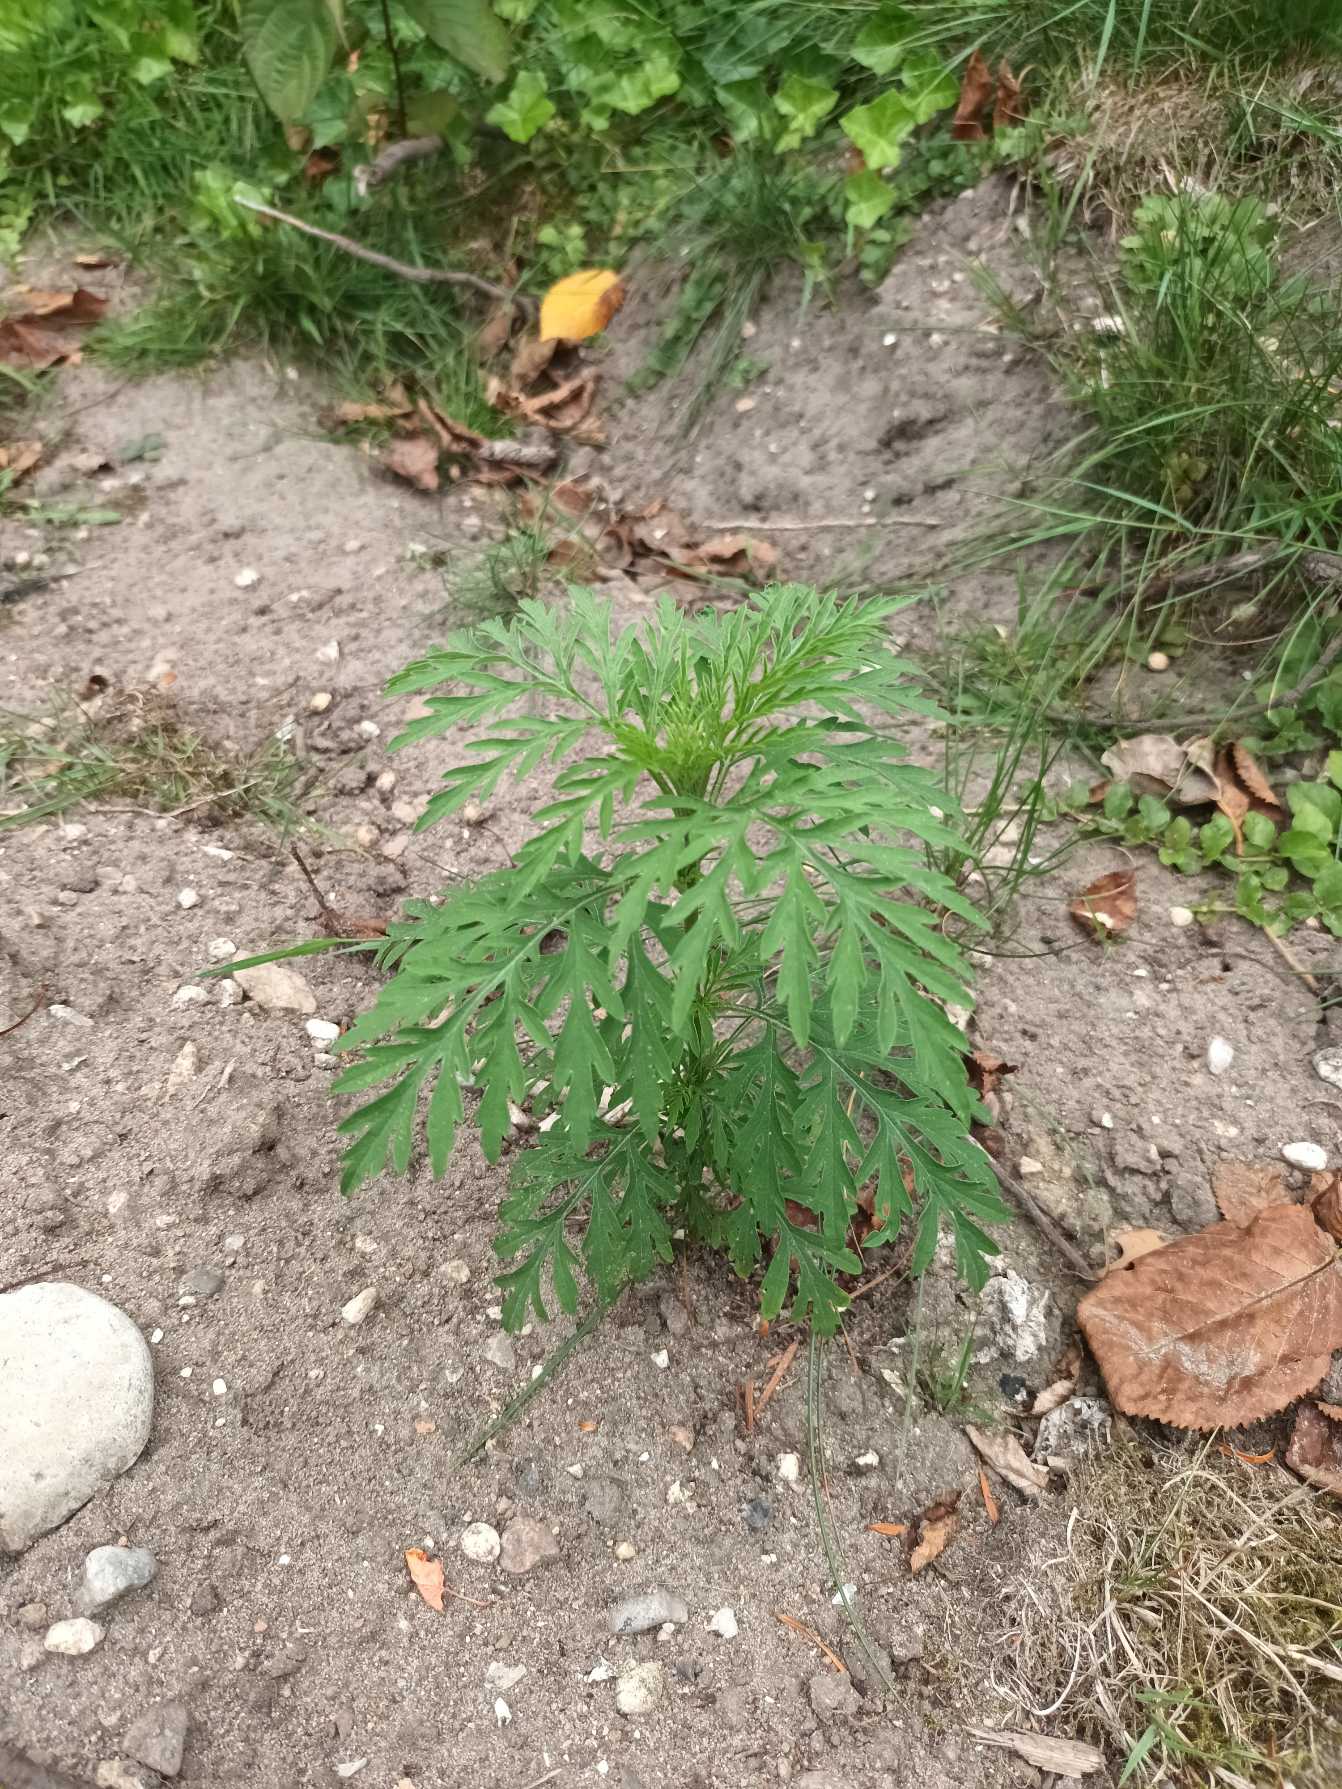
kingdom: Plantae
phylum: Tracheophyta
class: Magnoliopsida
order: Asterales
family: Asteraceae
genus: Ambrosia
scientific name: Ambrosia artemisiifolia
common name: Bynke-ambrosie
